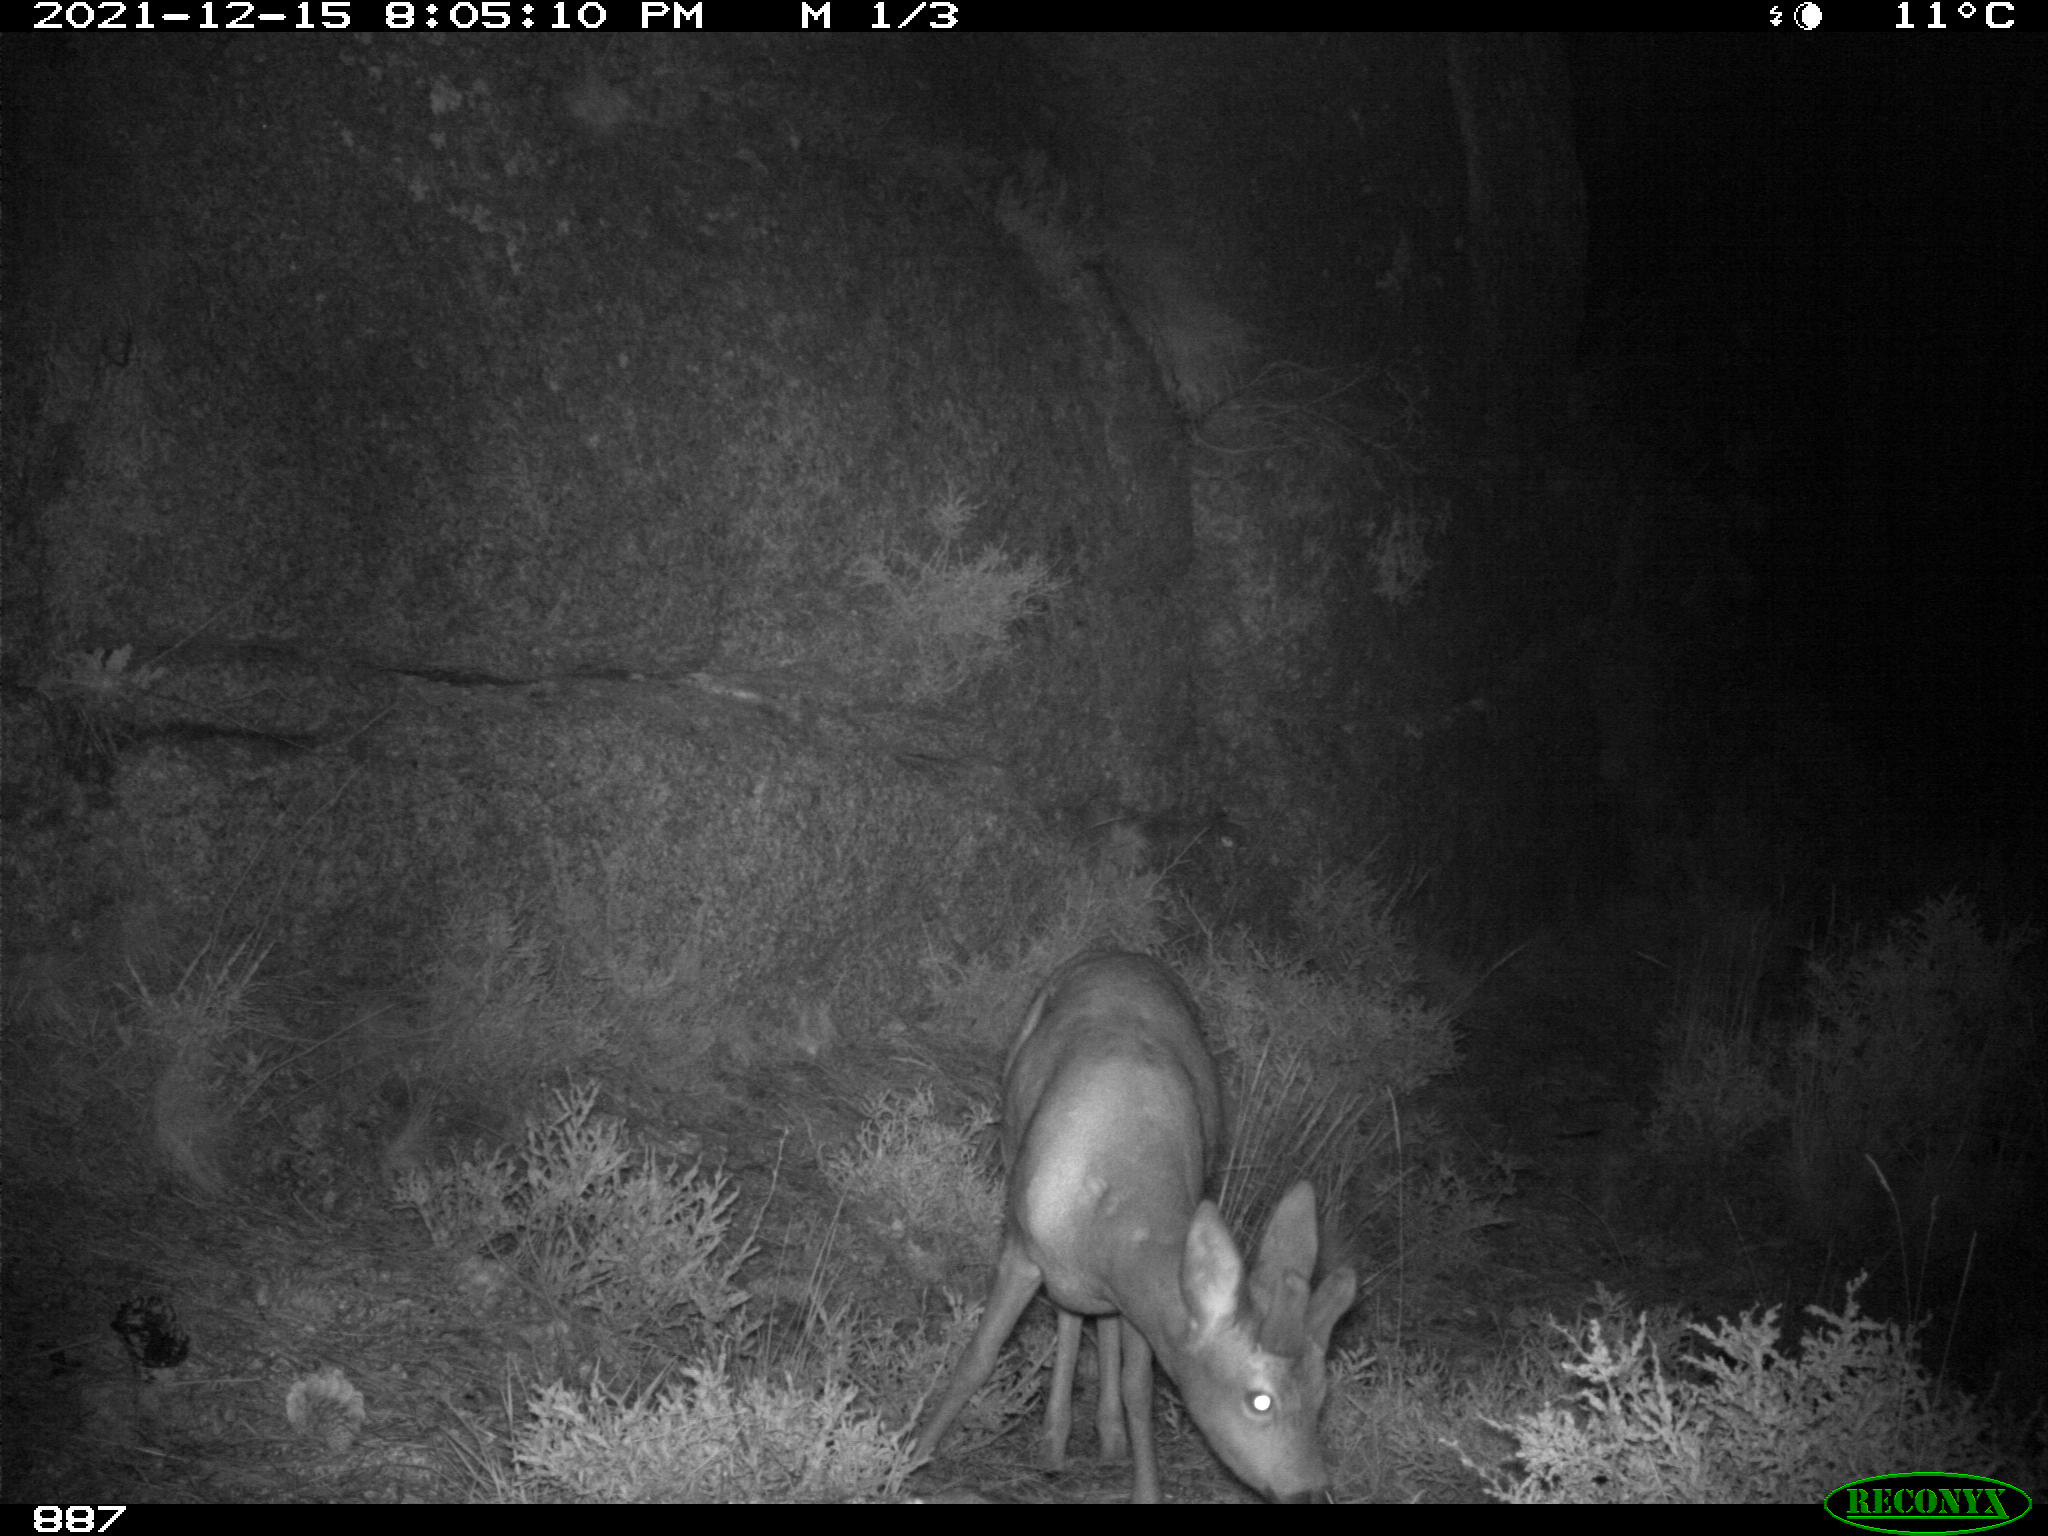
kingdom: Animalia
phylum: Chordata
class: Mammalia
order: Artiodactyla
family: Cervidae
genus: Capreolus
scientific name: Capreolus capreolus
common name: Western roe deer
